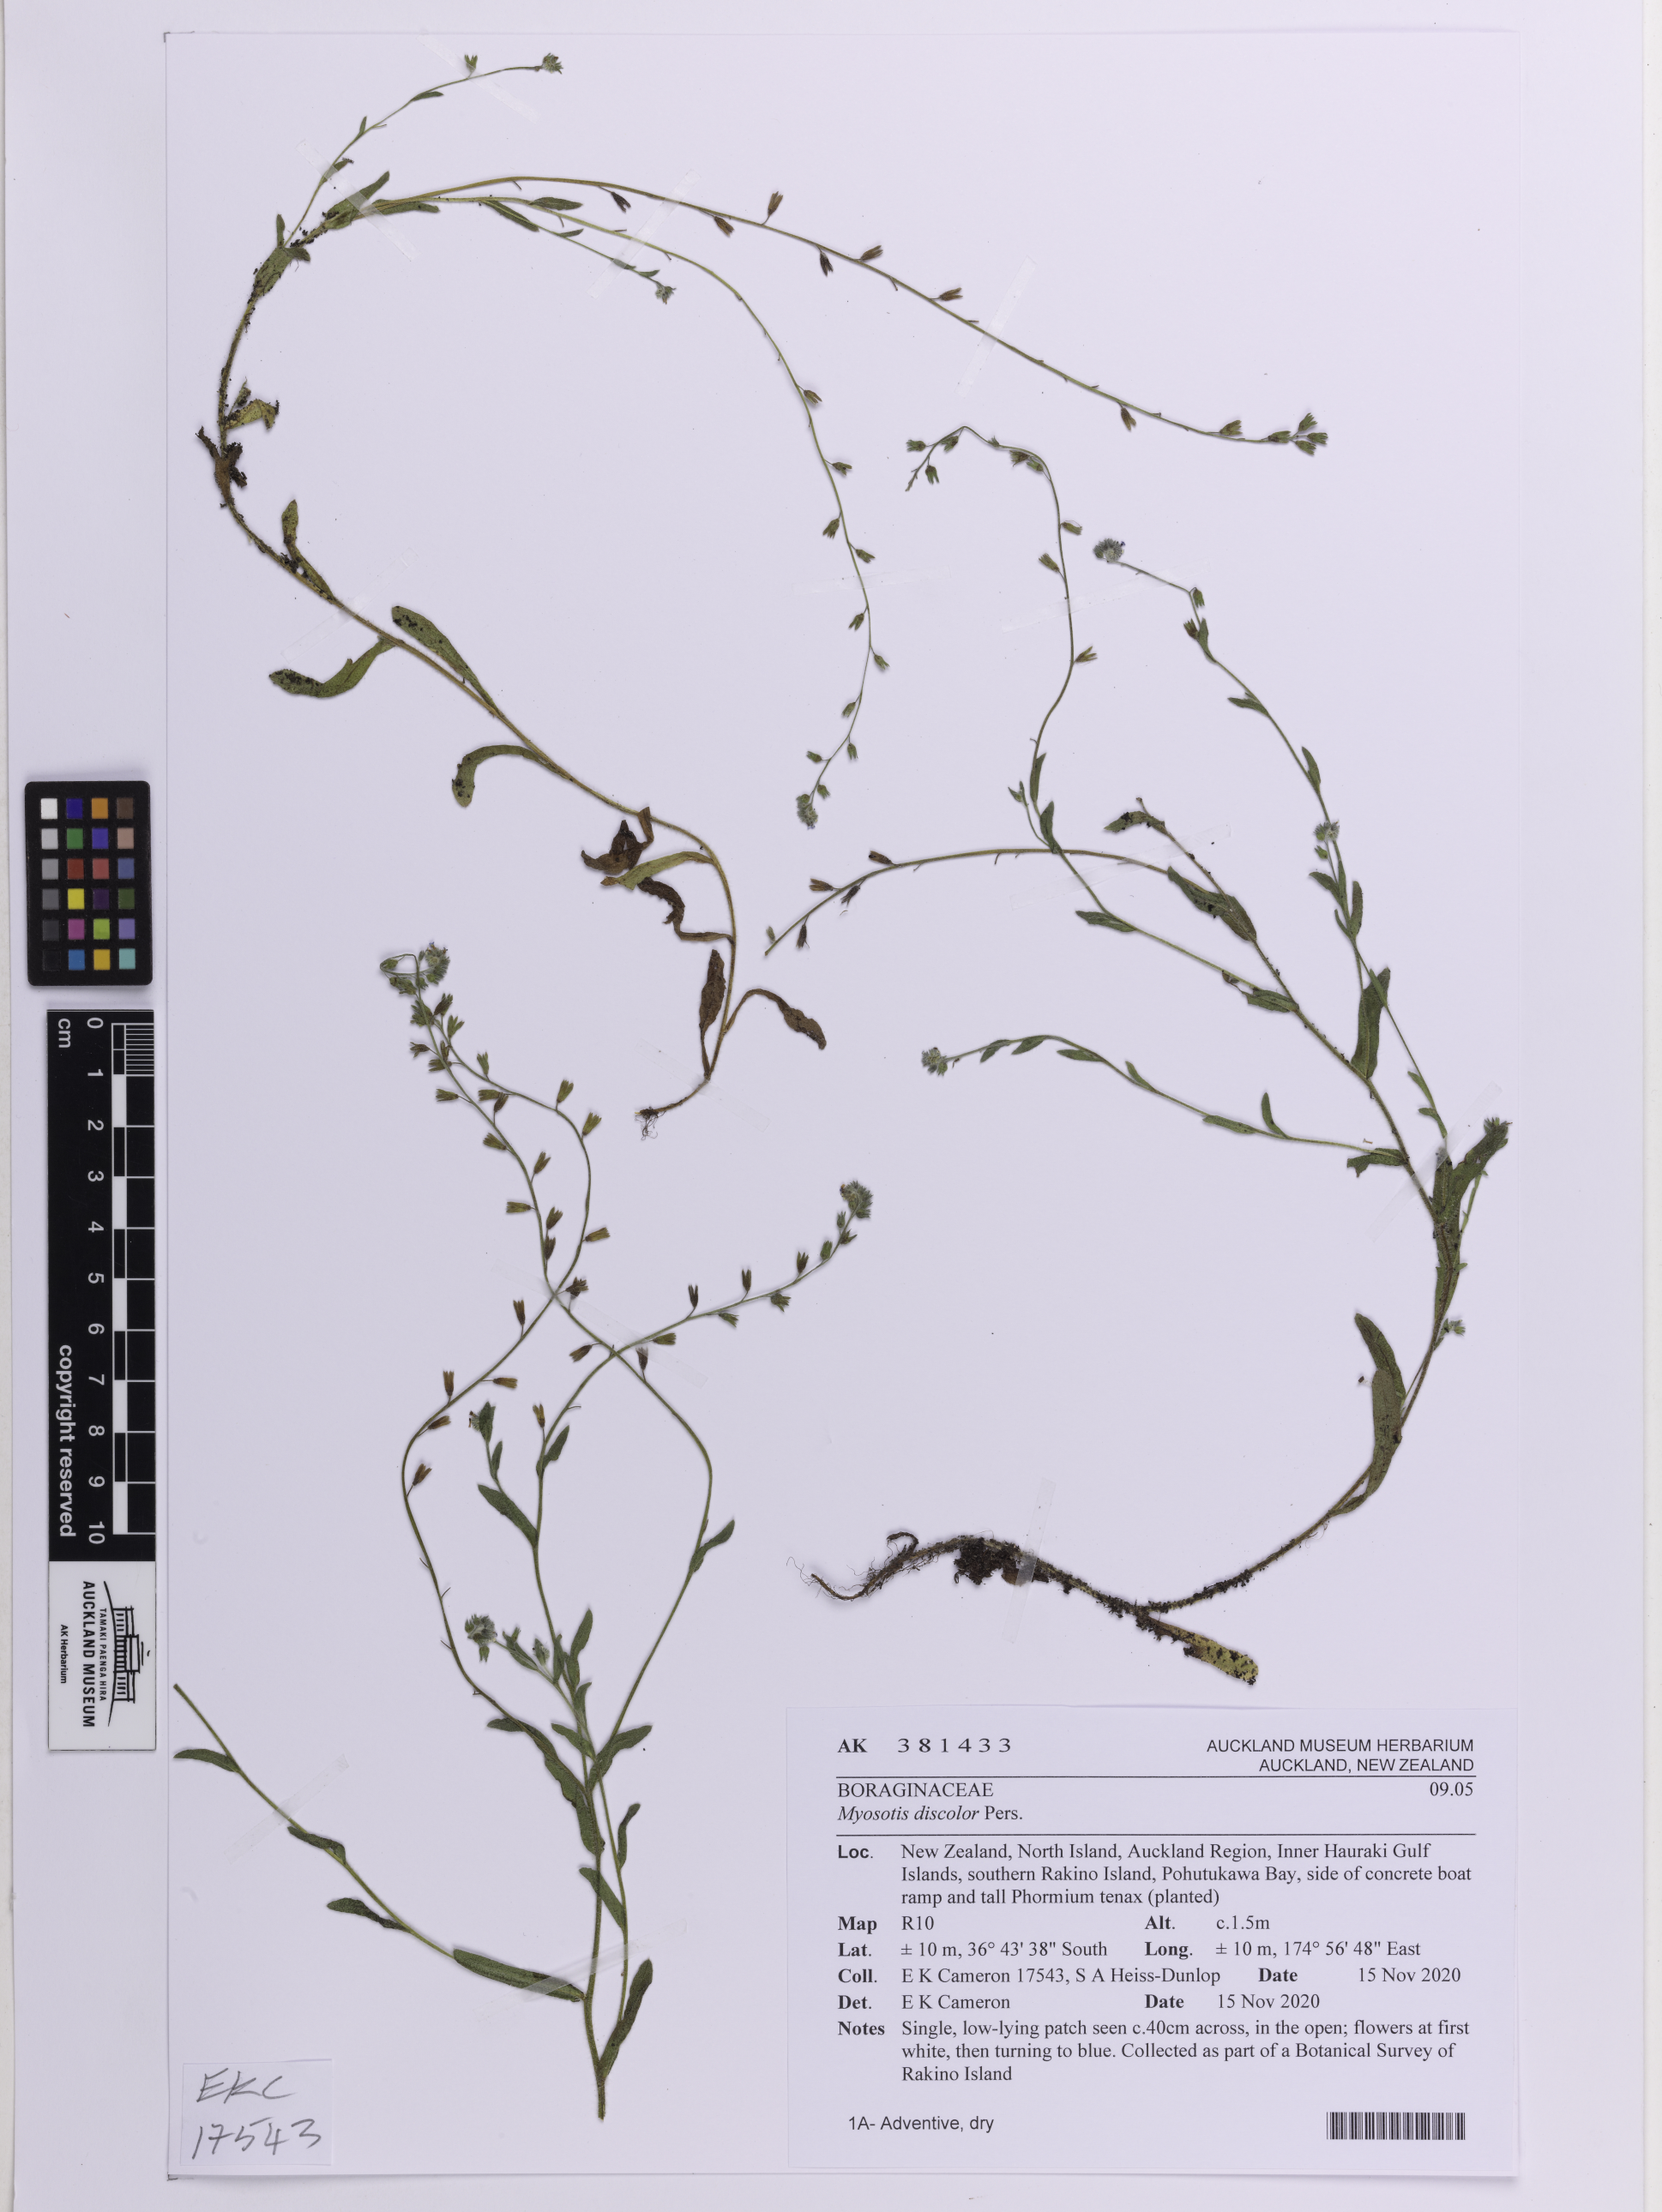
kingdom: Plantae
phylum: Tracheophyta
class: Magnoliopsida
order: Boraginales
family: Boraginaceae
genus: Myosotis
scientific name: Myosotis discolor
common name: Changing forget-me-not
